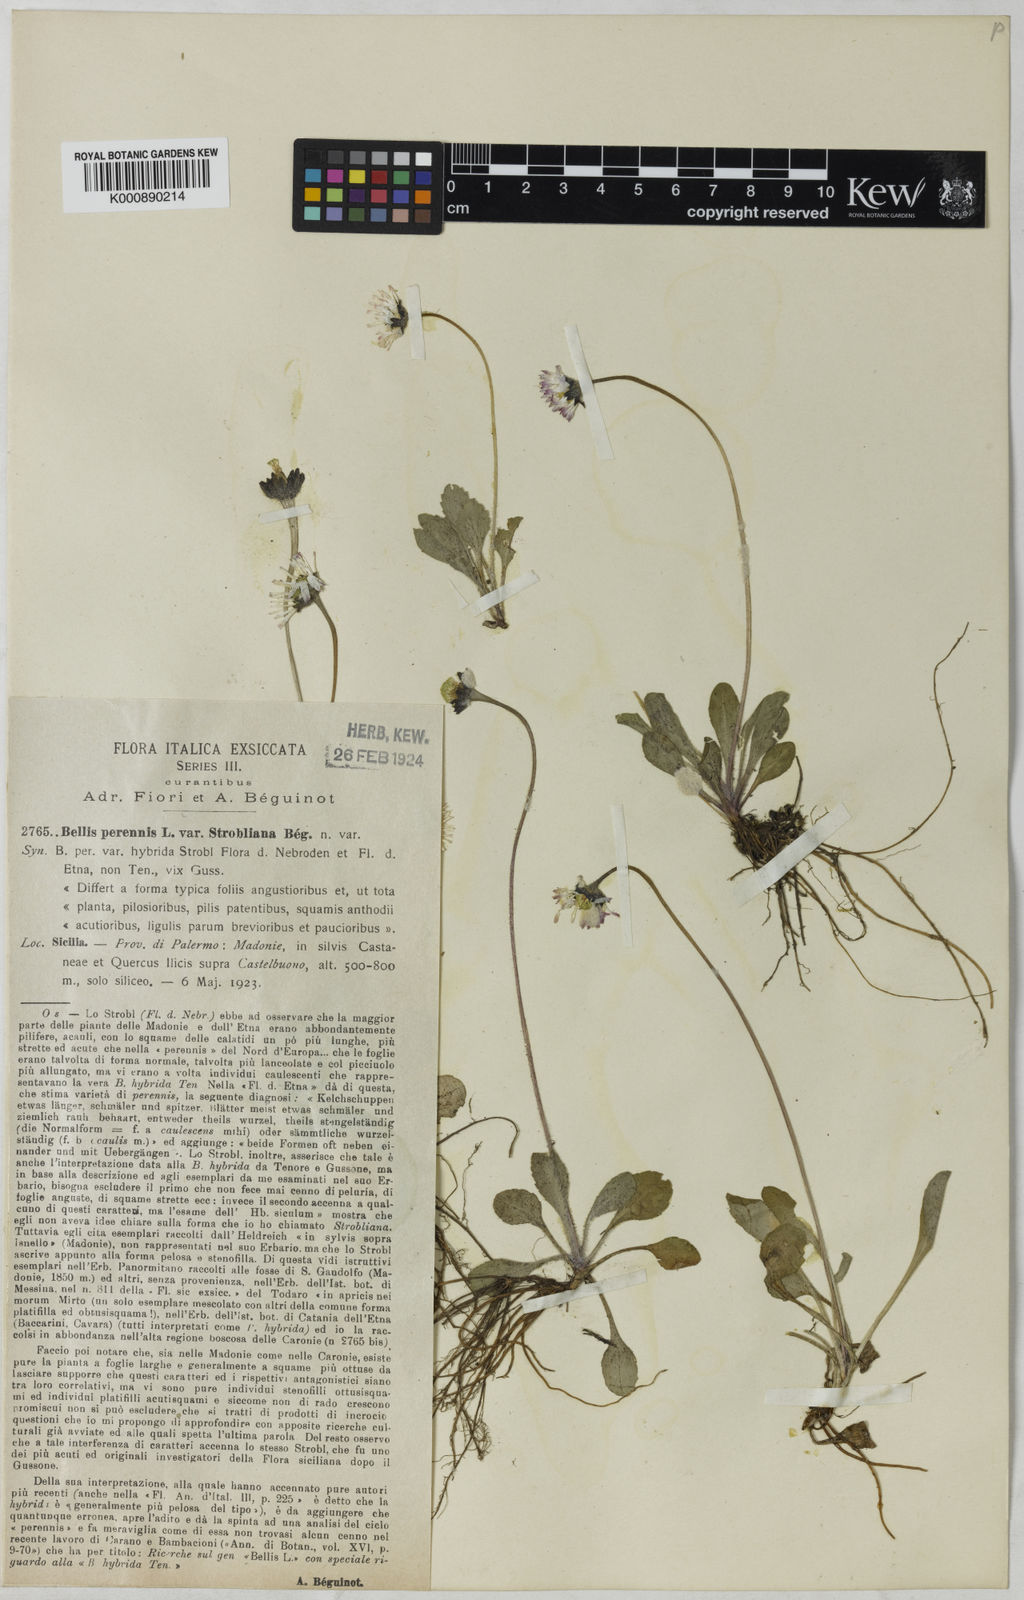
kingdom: Plantae
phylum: Tracheophyta
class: Magnoliopsida
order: Asterales
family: Asteraceae
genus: Bellis
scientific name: Bellis perennis
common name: Lawndaisy
